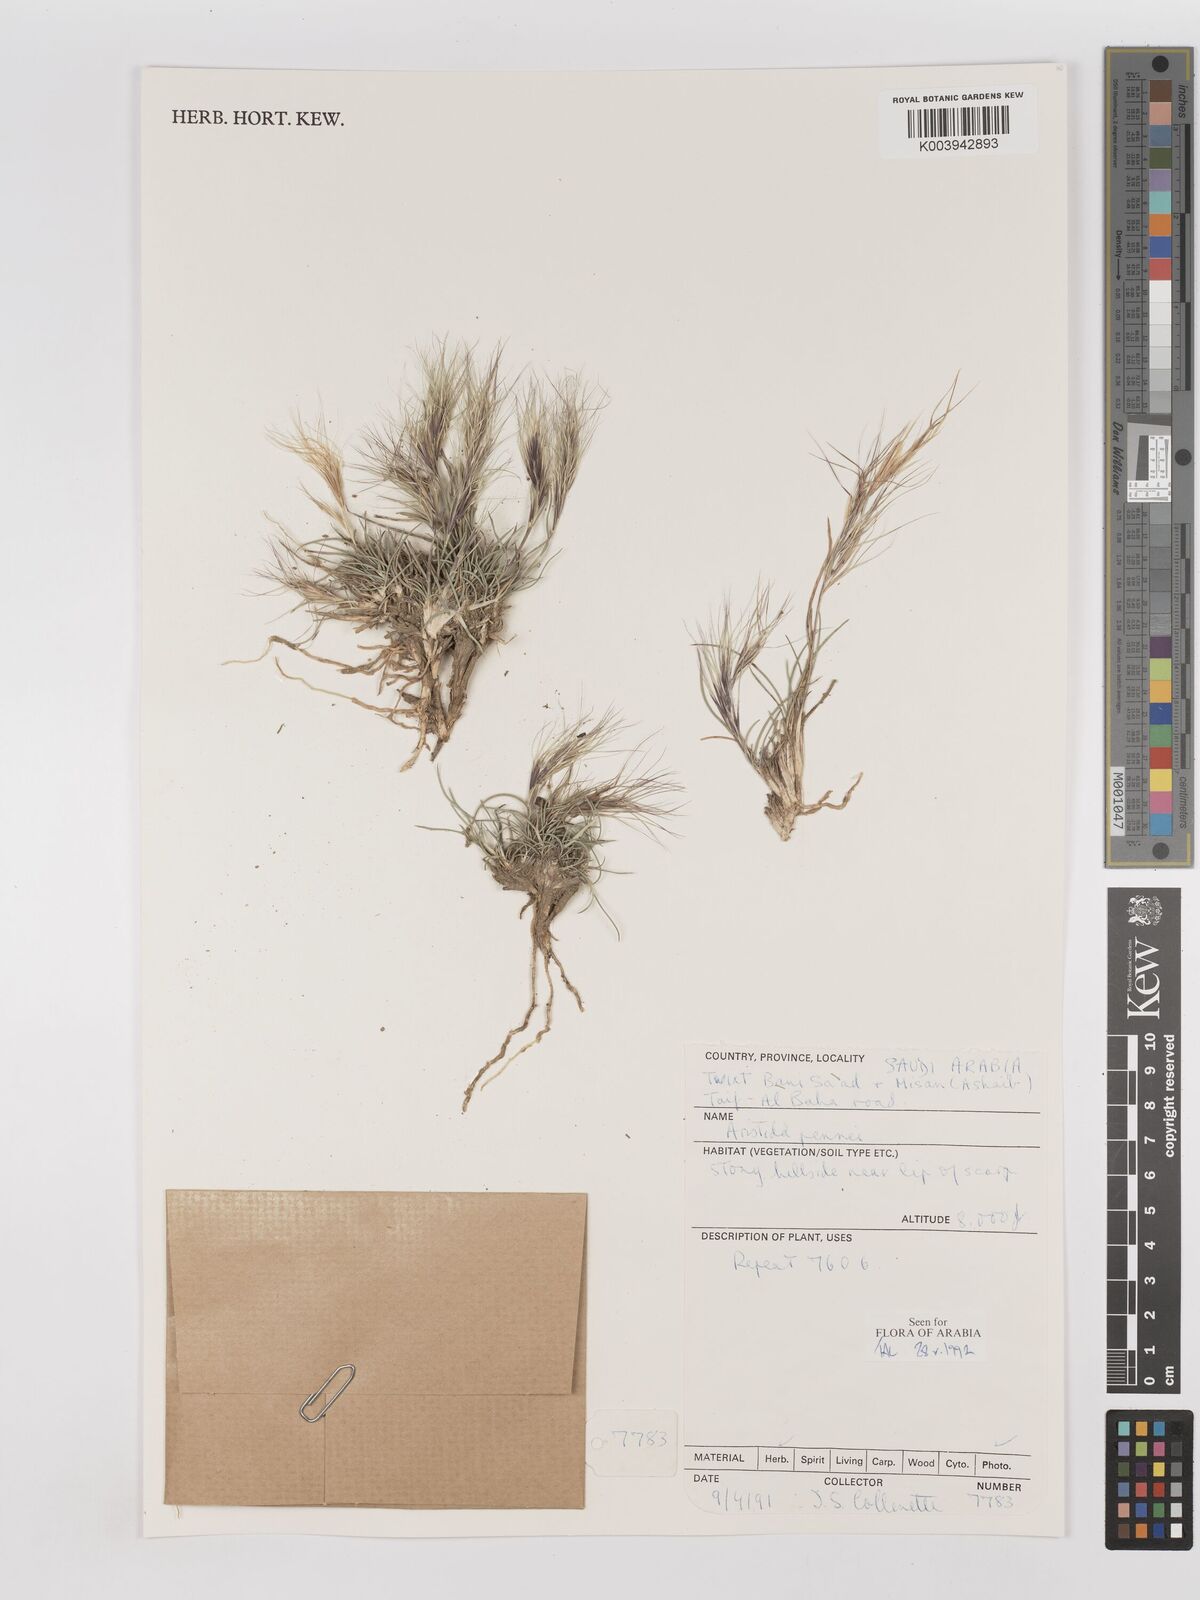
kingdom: Plantae
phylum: Tracheophyta
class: Liliopsida
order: Poales
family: Poaceae
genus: Aristida
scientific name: Aristida pennei
